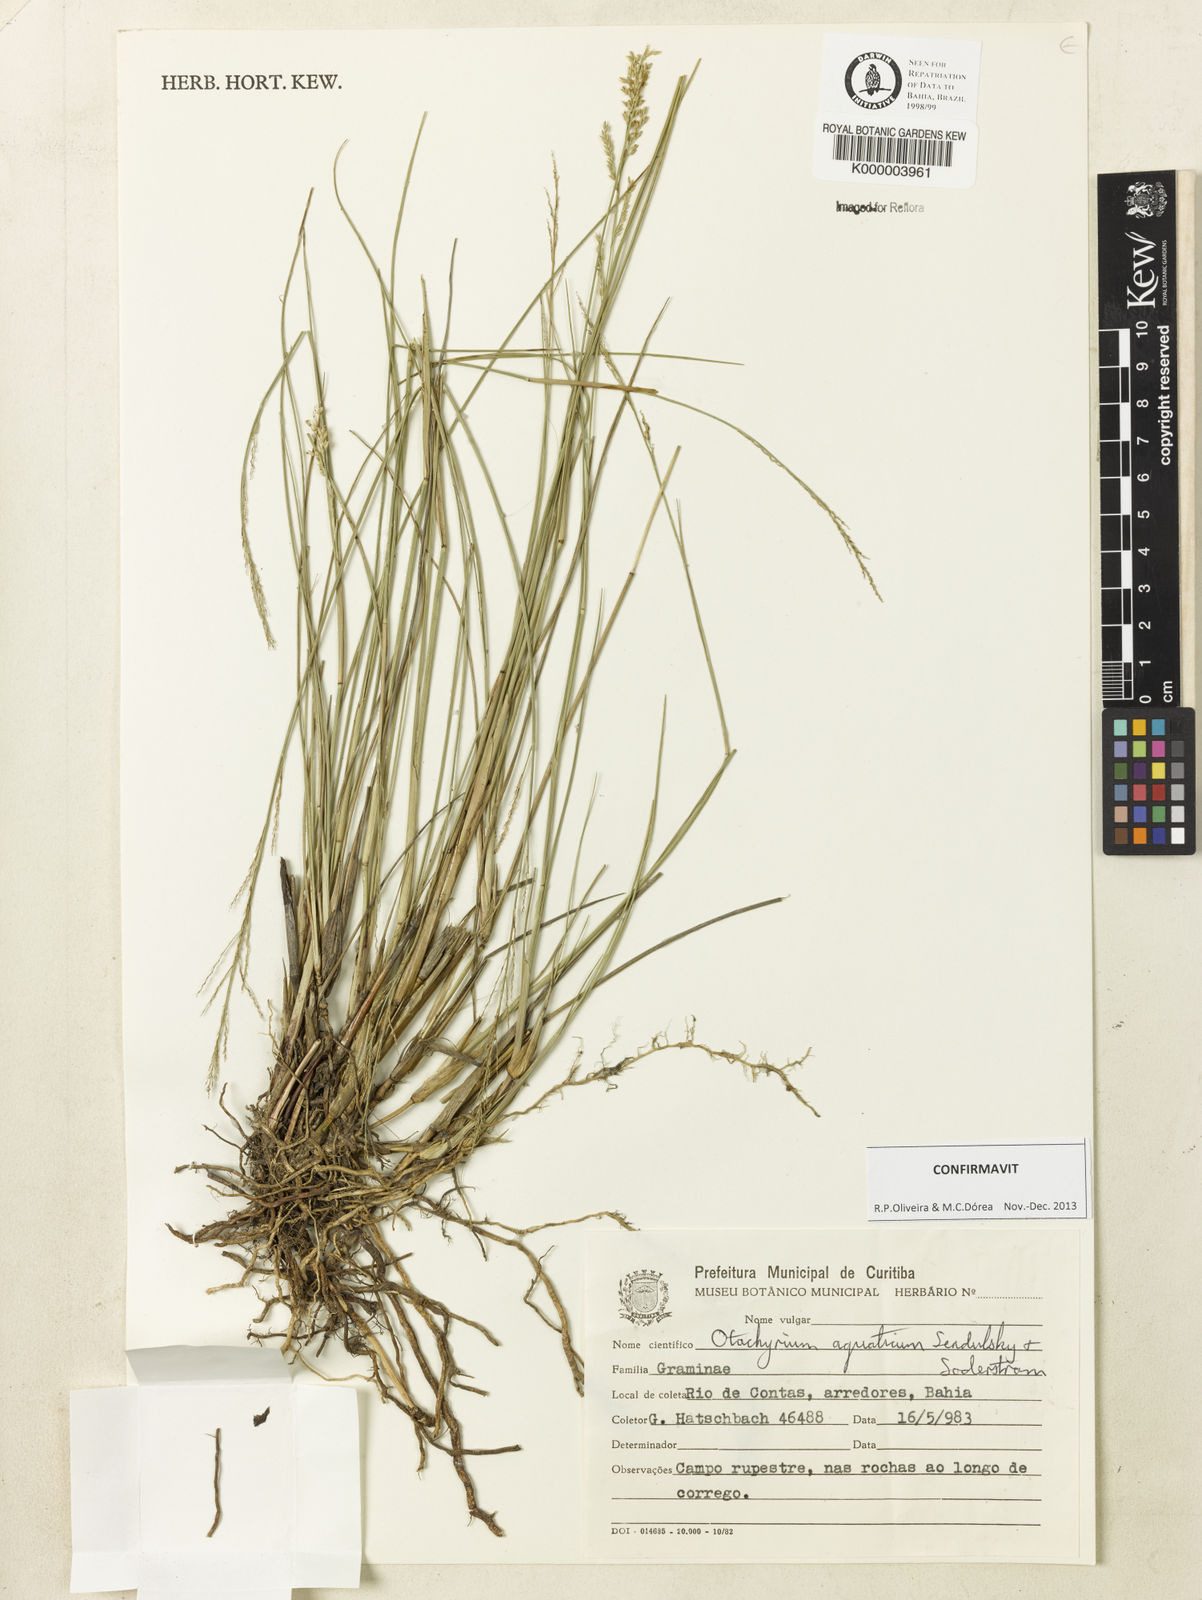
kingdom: Plantae
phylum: Tracheophyta
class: Liliopsida
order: Poales
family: Poaceae
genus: Otachyrium
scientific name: Otachyrium aquaticum
